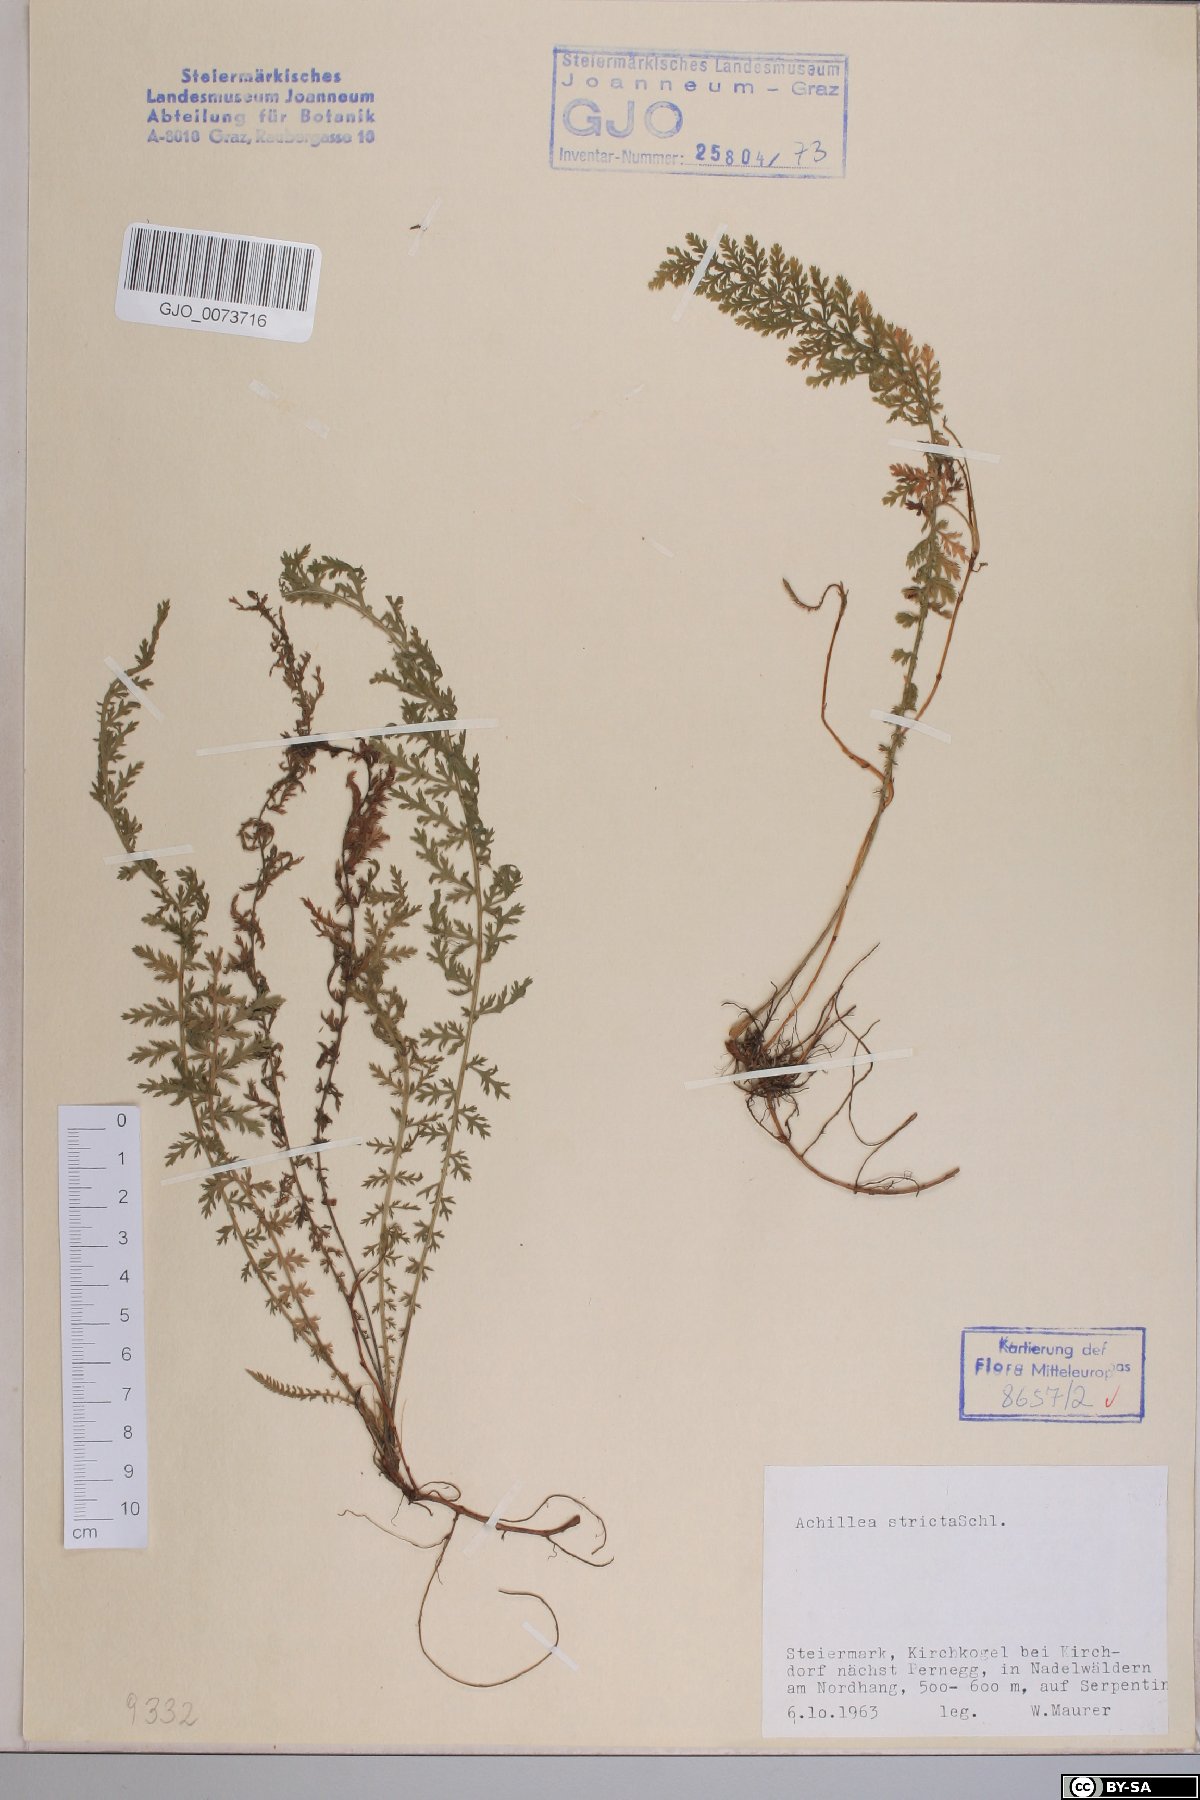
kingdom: Plantae
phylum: Tracheophyta
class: Magnoliopsida
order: Asterales
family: Asteraceae
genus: Achillea
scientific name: Achillea distans
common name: Tall yarrow
